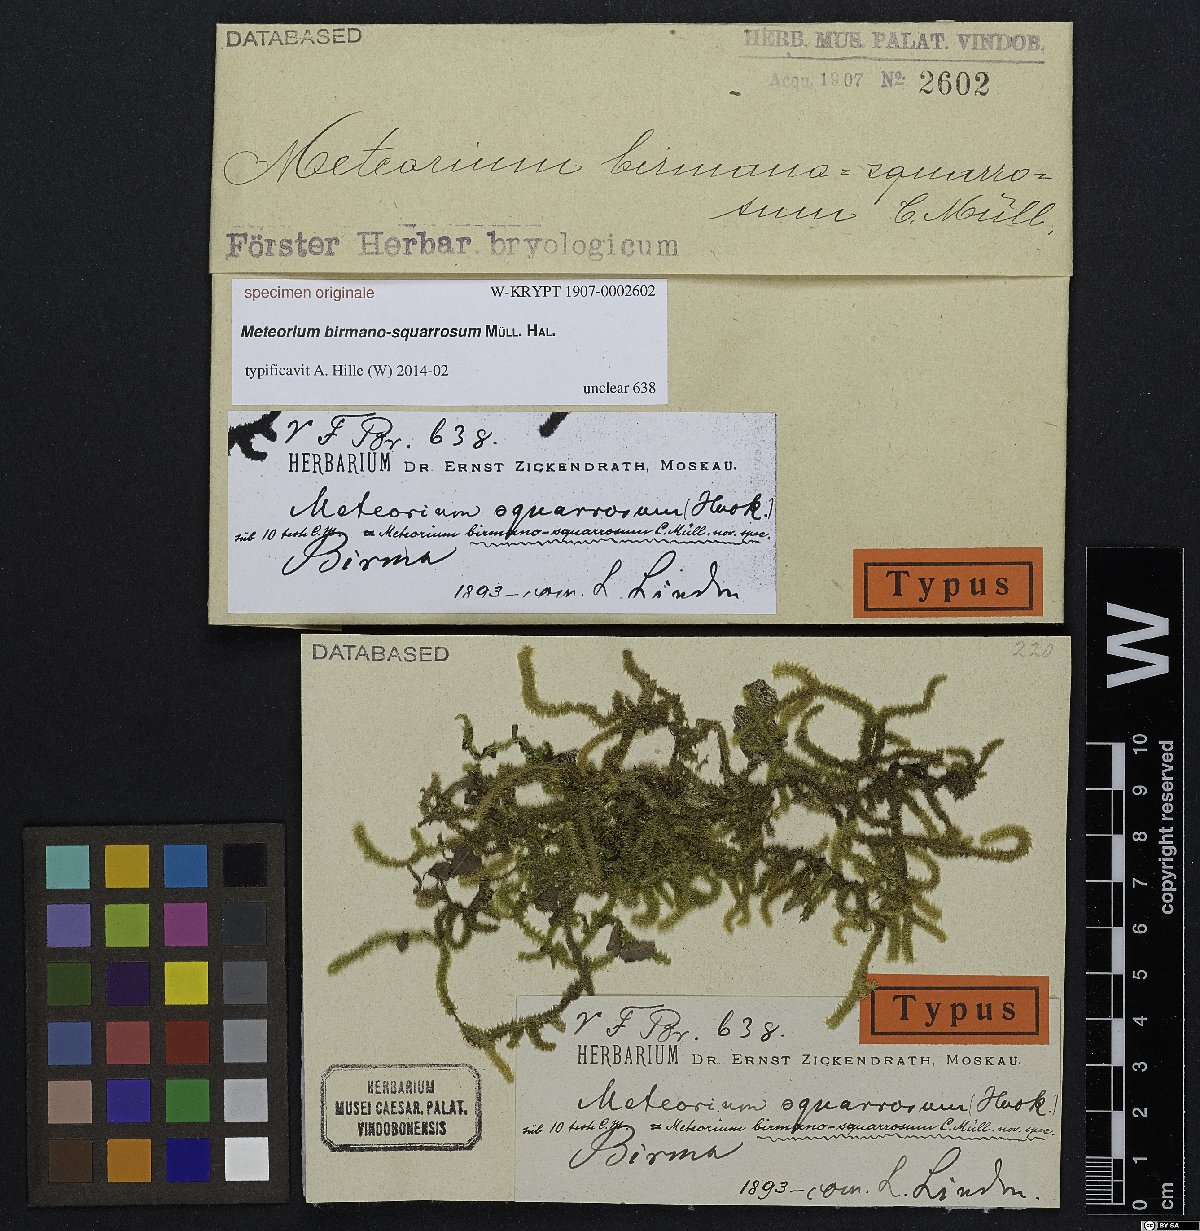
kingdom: Plantae
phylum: Bryophyta
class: Bryopsida
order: Hypnales
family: Meteoriaceae
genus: Meteorium
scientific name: Meteorium
